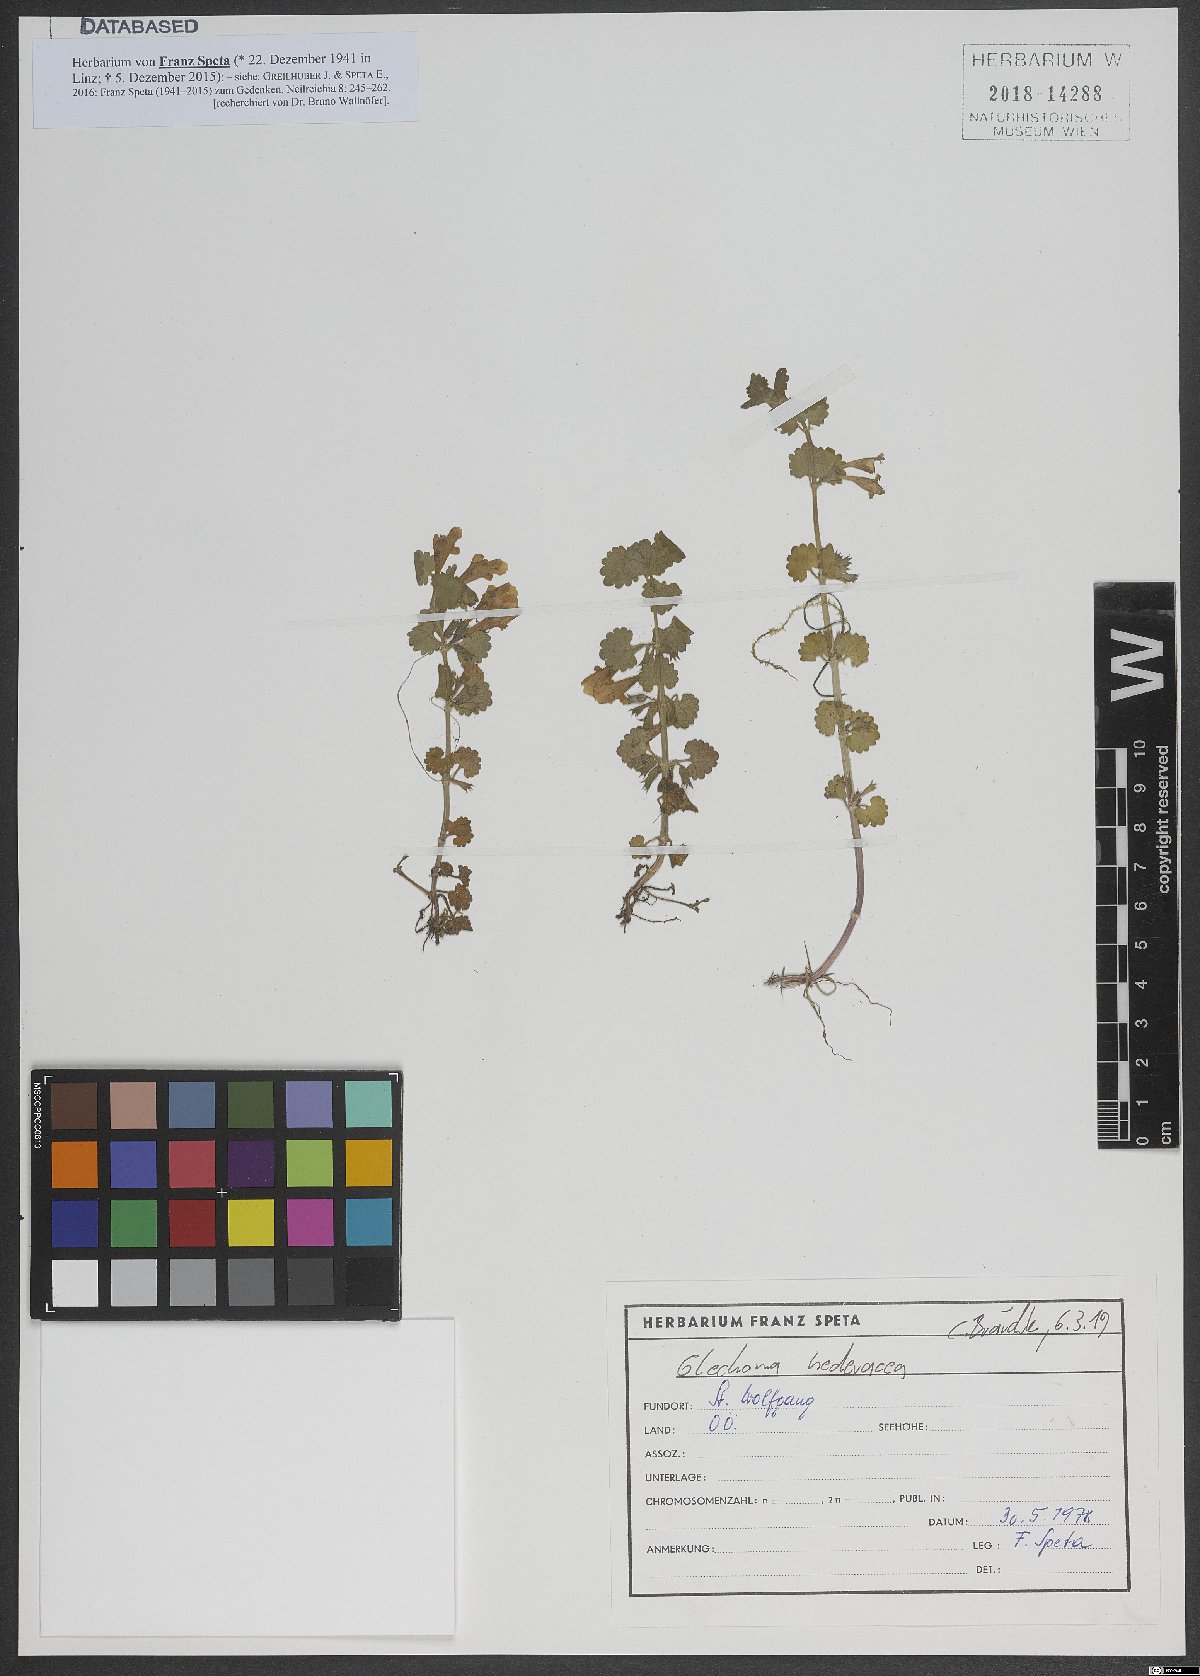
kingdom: Plantae
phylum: Tracheophyta
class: Magnoliopsida
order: Lamiales
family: Lamiaceae
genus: Glechoma
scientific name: Glechoma hederacea
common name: Ground ivy
